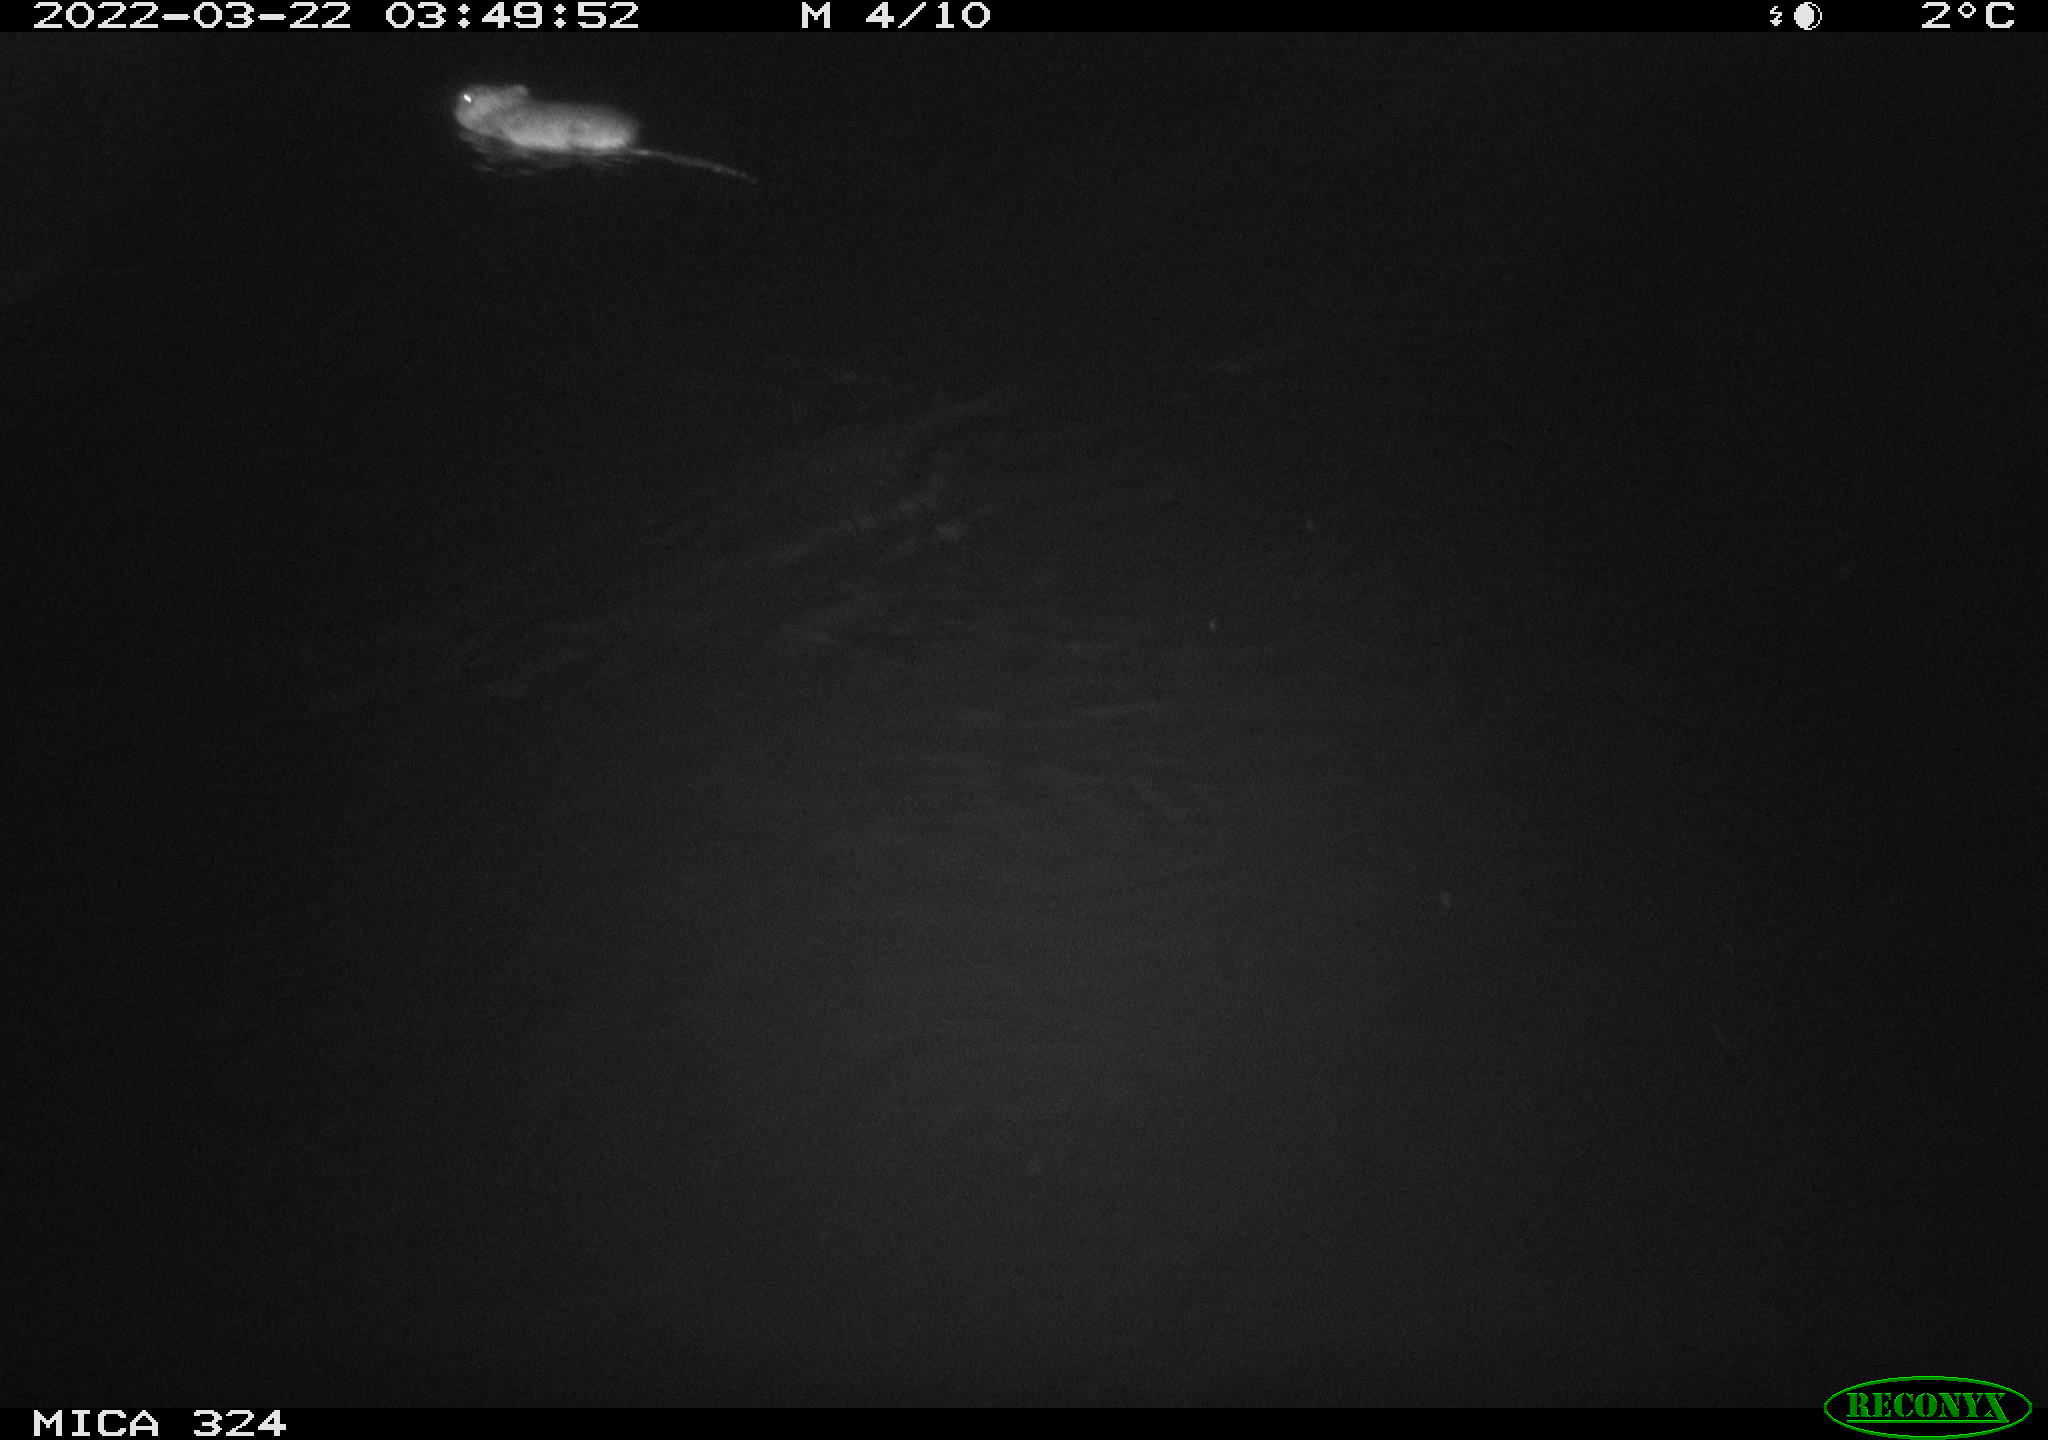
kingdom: Animalia
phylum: Chordata
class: Mammalia
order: Rodentia
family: Cricetidae
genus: Ondatra
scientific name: Ondatra zibethicus
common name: Muskrat
